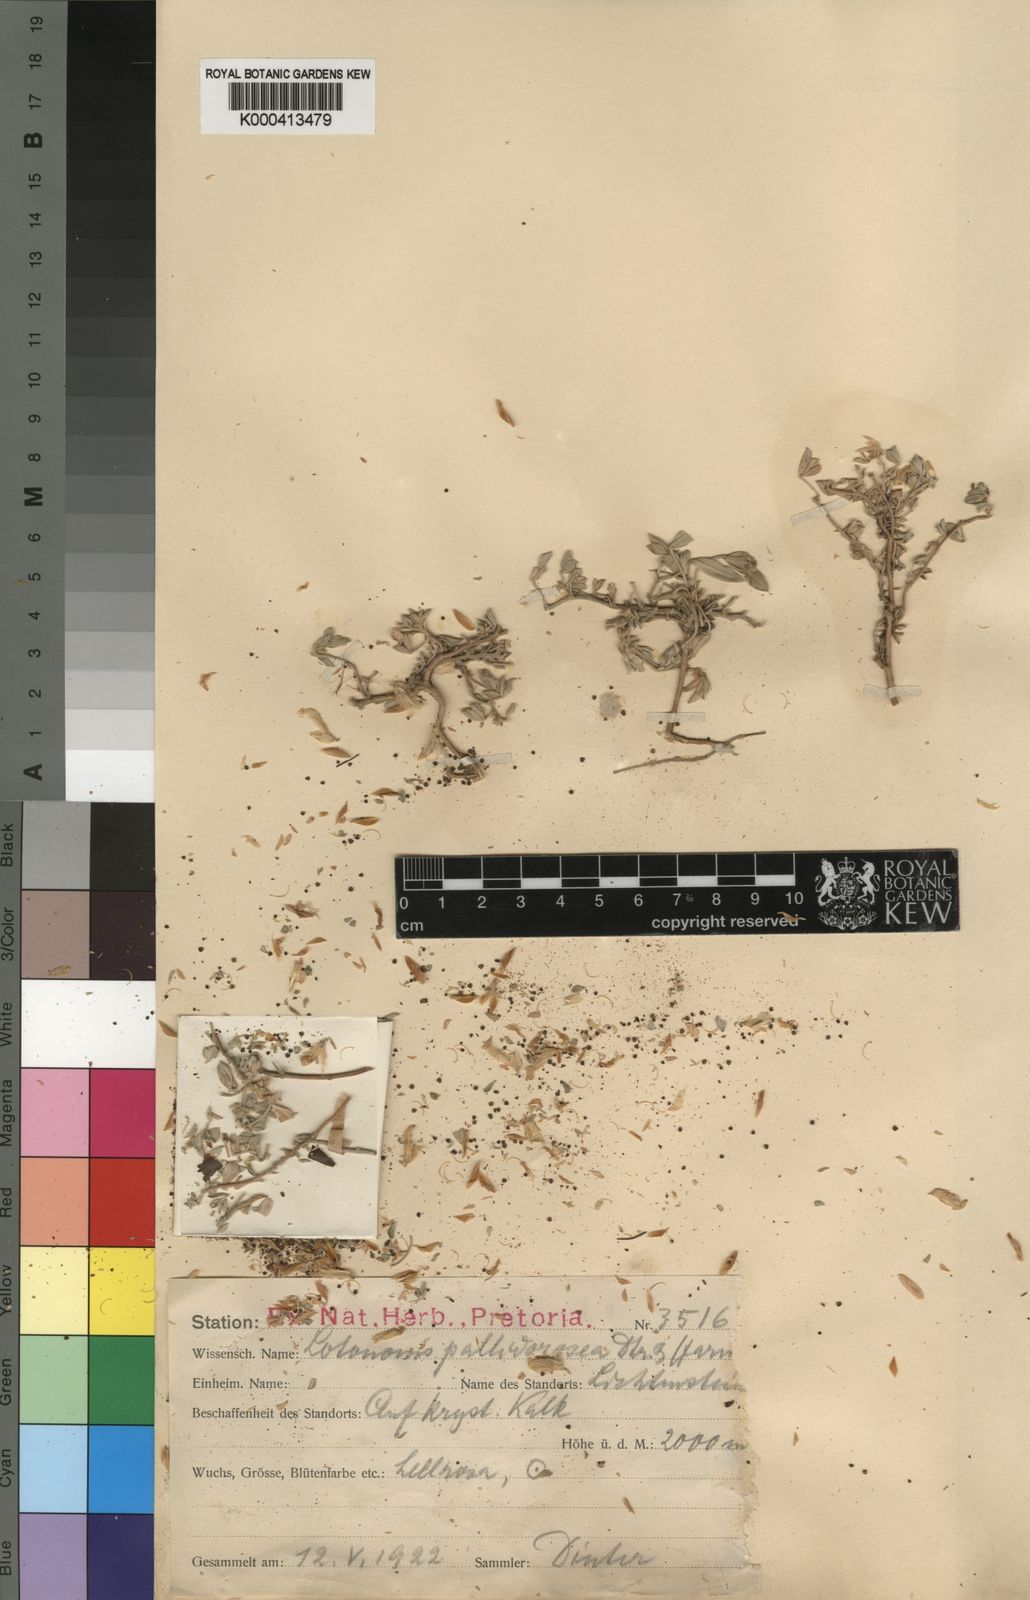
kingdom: Plantae
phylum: Tracheophyta
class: Magnoliopsida
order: Fabales
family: Fabaceae
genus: Lotononis
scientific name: Lotononis pallidirosea
